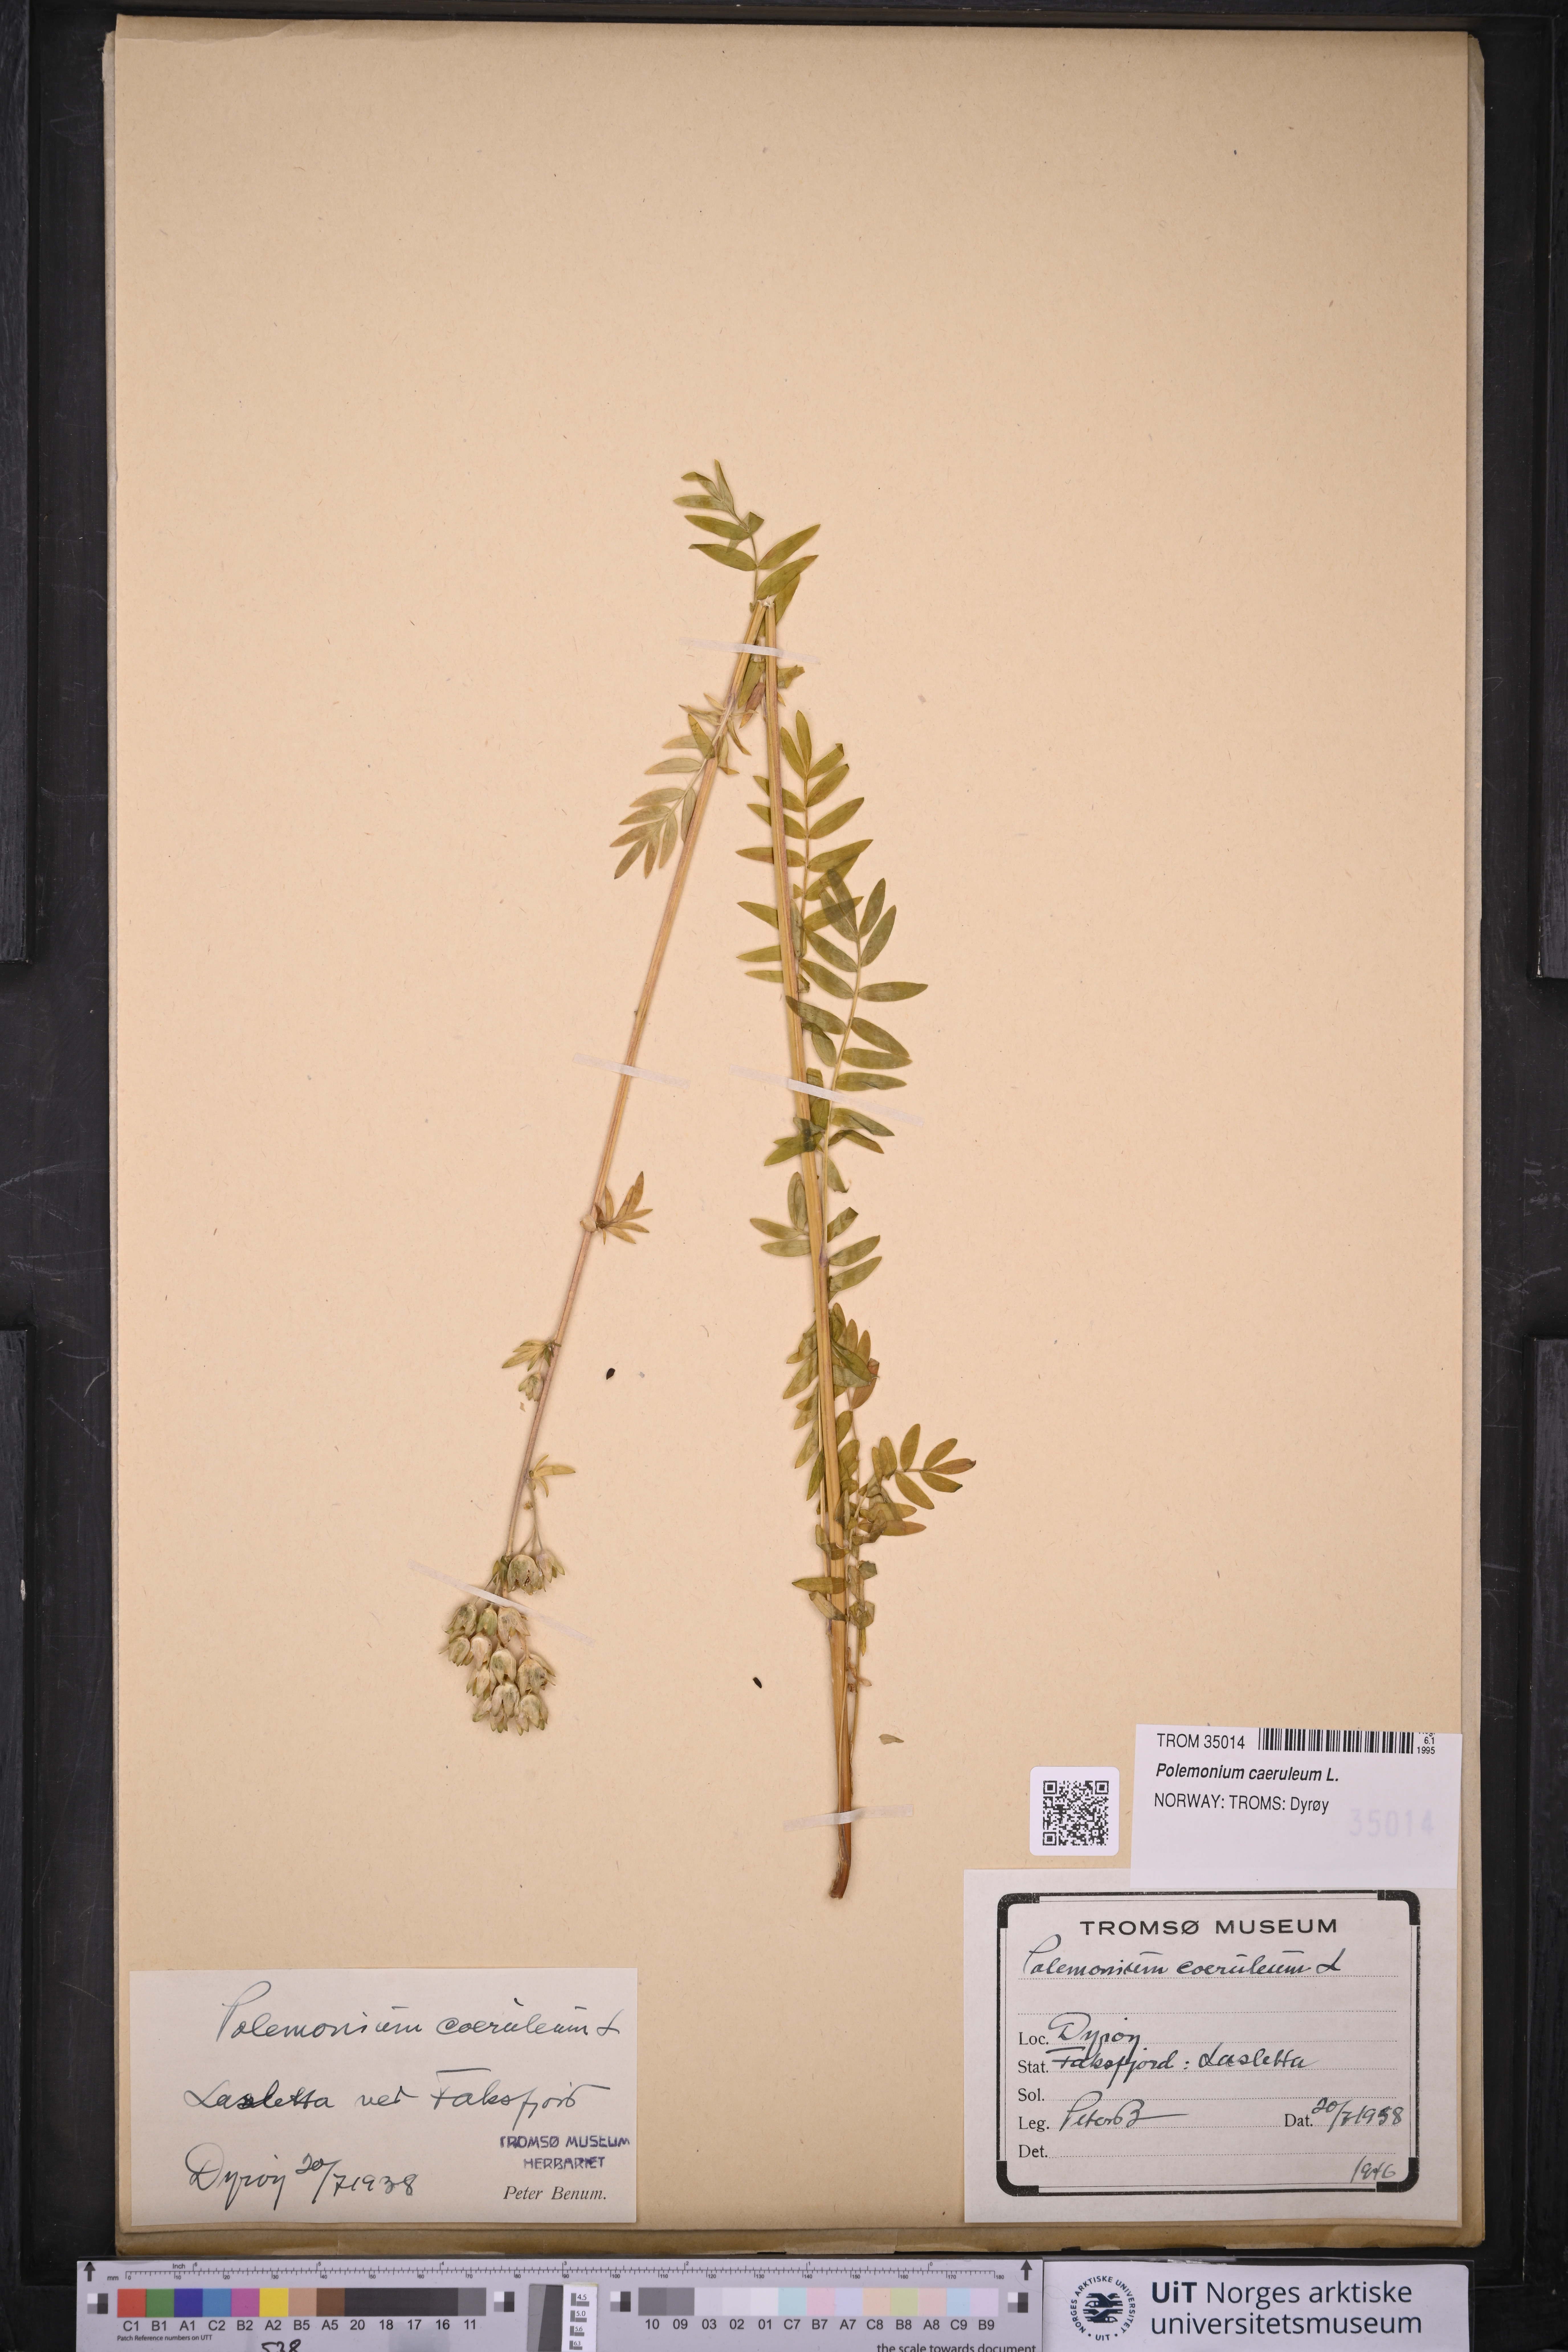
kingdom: Plantae
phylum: Tracheophyta
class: Magnoliopsida
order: Ericales
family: Polemoniaceae
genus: Polemonium
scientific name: Polemonium caeruleum
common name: Jacob's-ladder
